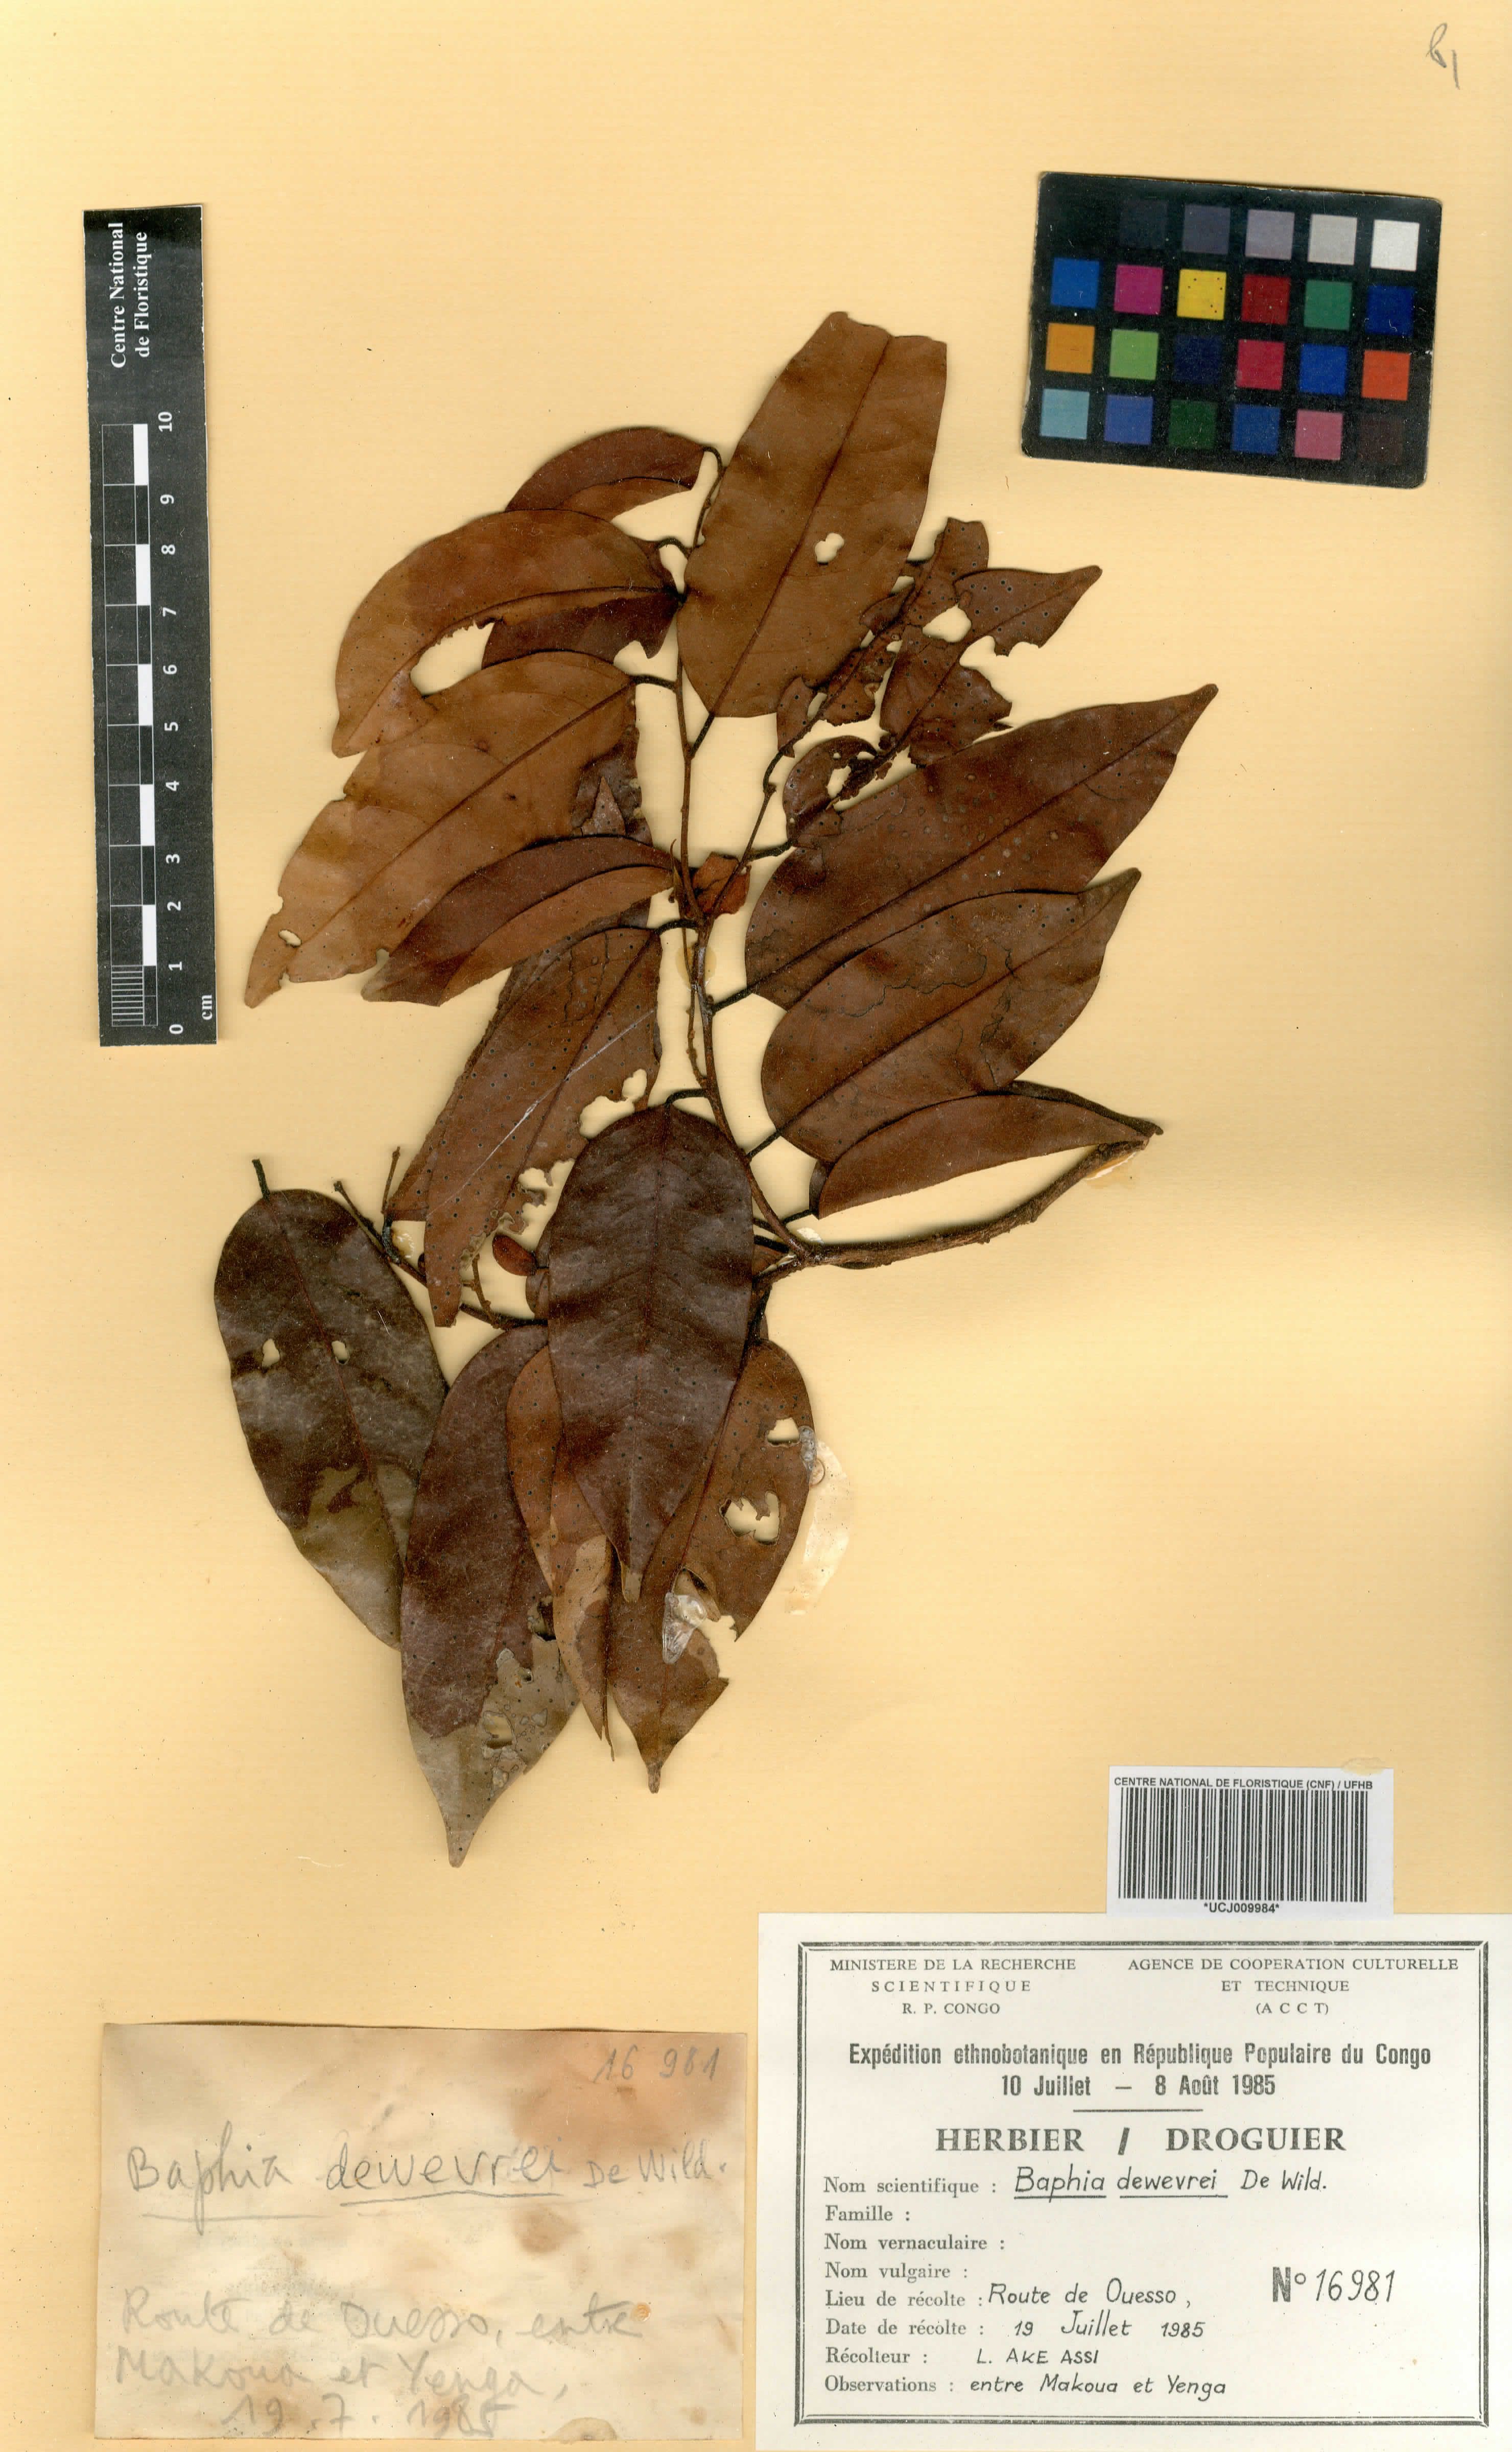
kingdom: Plantae
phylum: Tracheophyta
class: Magnoliopsida
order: Fabales
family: Fabaceae
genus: Baphia
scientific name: Baphia dewevrei
